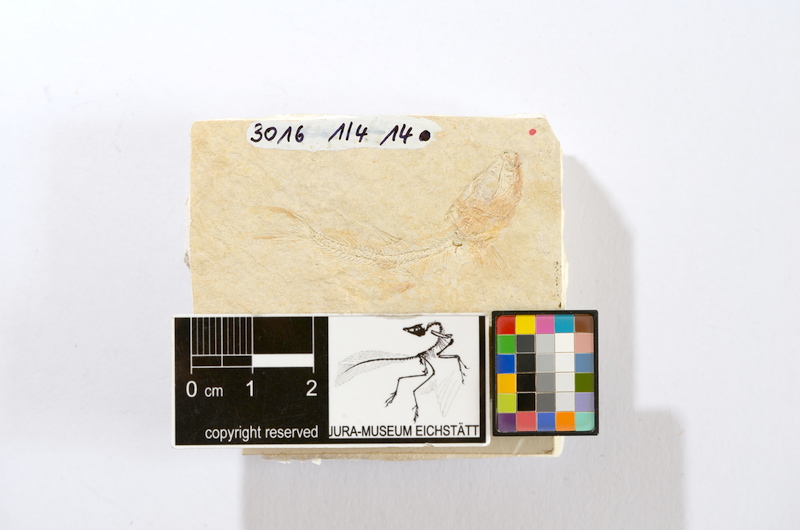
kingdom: Animalia
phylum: Chordata
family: Ascalaboidae
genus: Tharsis
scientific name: Tharsis dubius
